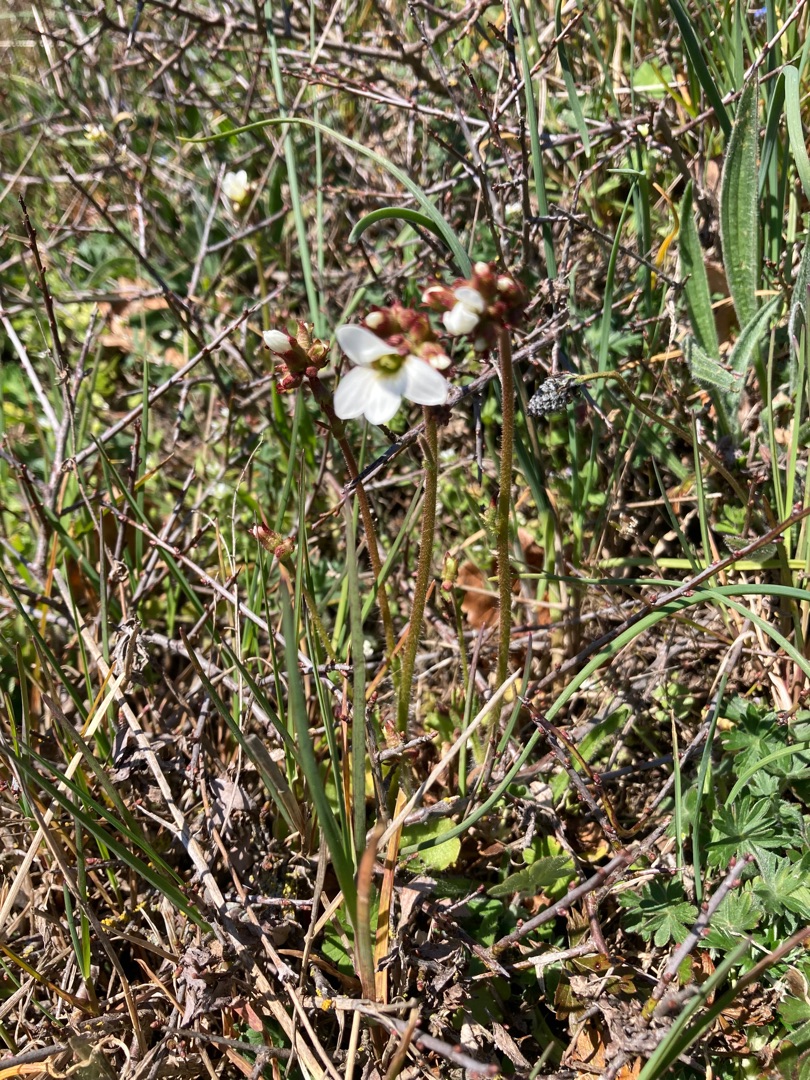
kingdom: Plantae
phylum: Tracheophyta
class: Magnoliopsida
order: Saxifragales
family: Saxifragaceae
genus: Saxifraga
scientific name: Saxifraga granulata
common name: Kornet stenbræk
